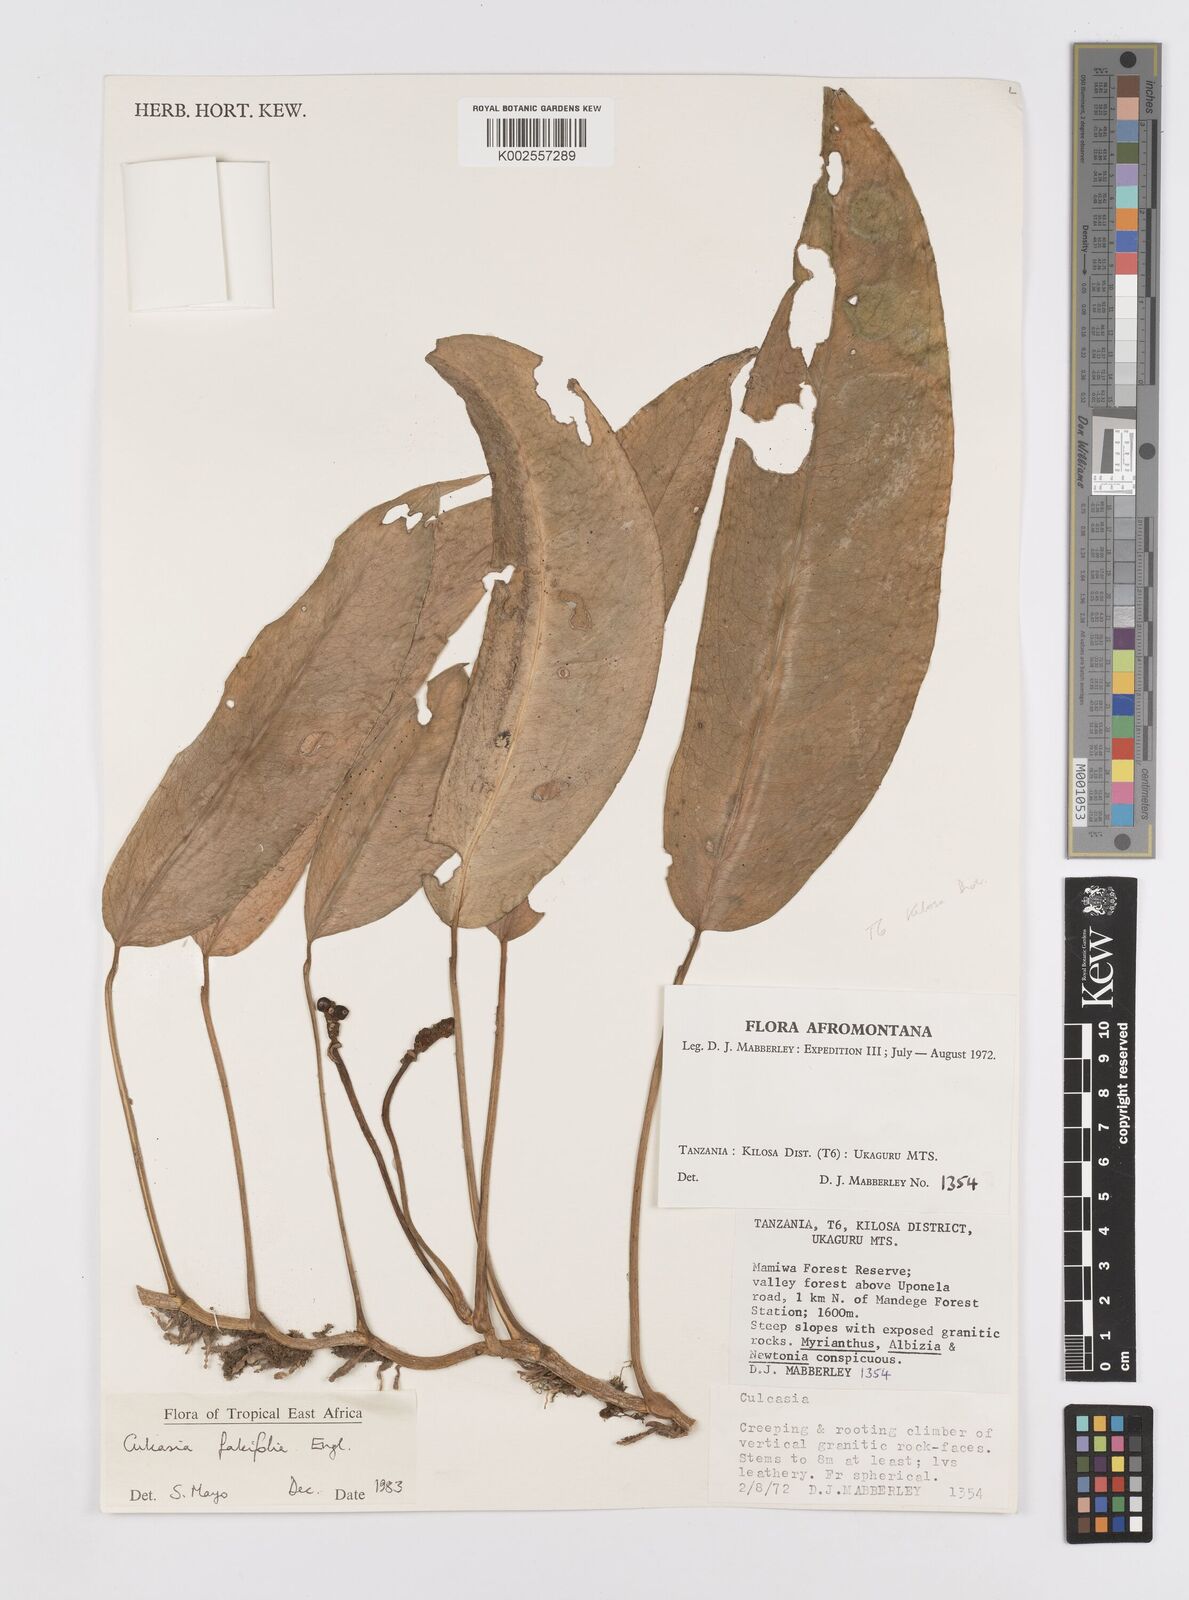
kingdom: Plantae
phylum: Tracheophyta
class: Liliopsida
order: Alismatales
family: Araceae
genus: Culcasia
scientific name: Culcasia falcifolia
